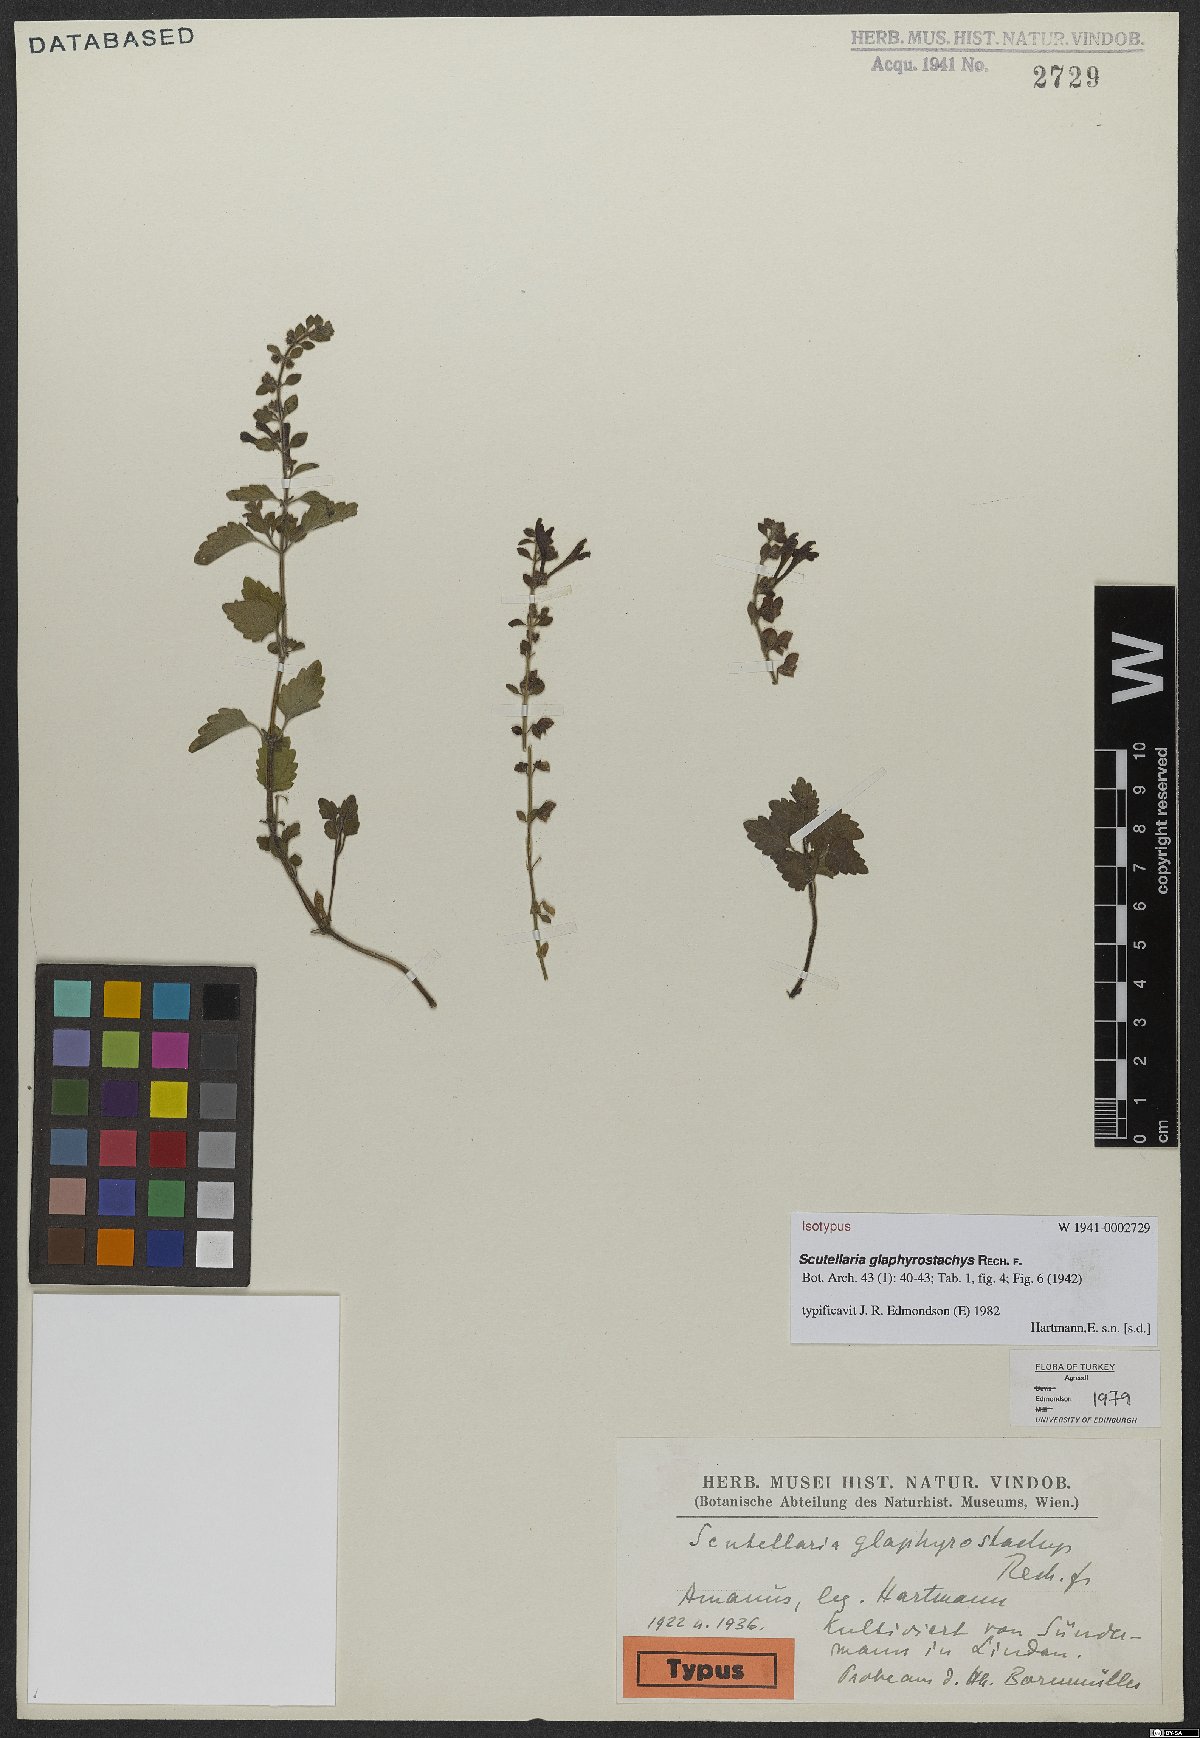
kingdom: Plantae
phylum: Tracheophyta
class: Magnoliopsida
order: Lamiales
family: Lamiaceae
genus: Scutellaria
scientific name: Scutellaria glaphyrostachys
